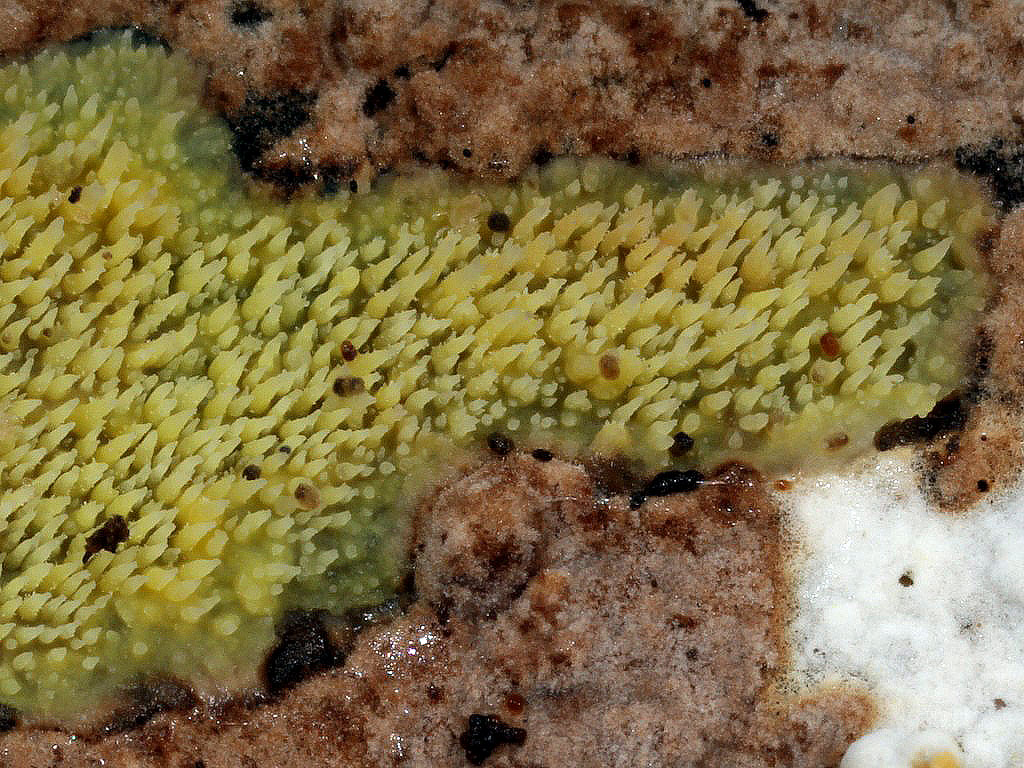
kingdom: Fungi
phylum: Basidiomycota
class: Agaricomycetes
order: Polyporales
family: Meruliaceae
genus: Mycoacia
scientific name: Mycoacia uda
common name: citrongul vokspig
